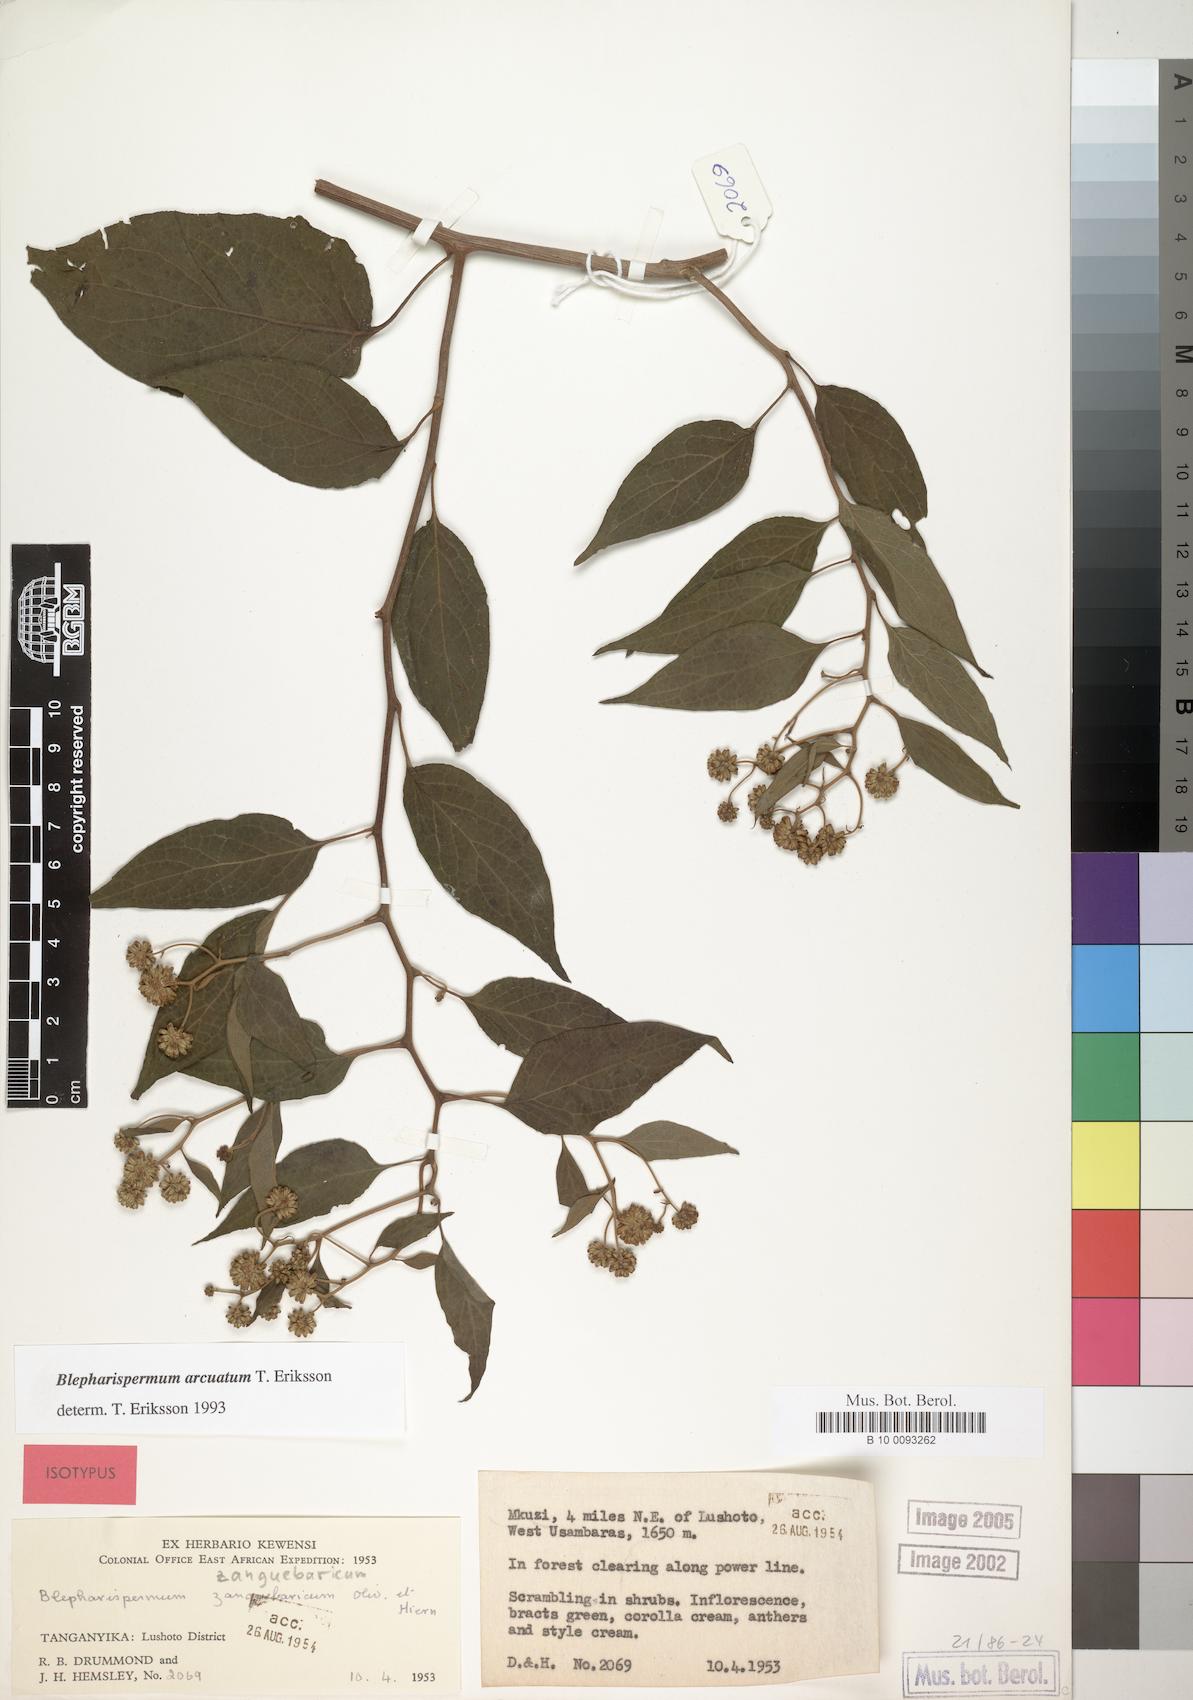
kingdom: Plantae
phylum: Tracheophyta
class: Magnoliopsida
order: Asterales
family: Asteraceae
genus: Blepharispermum
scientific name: Blepharispermum arcuatum
